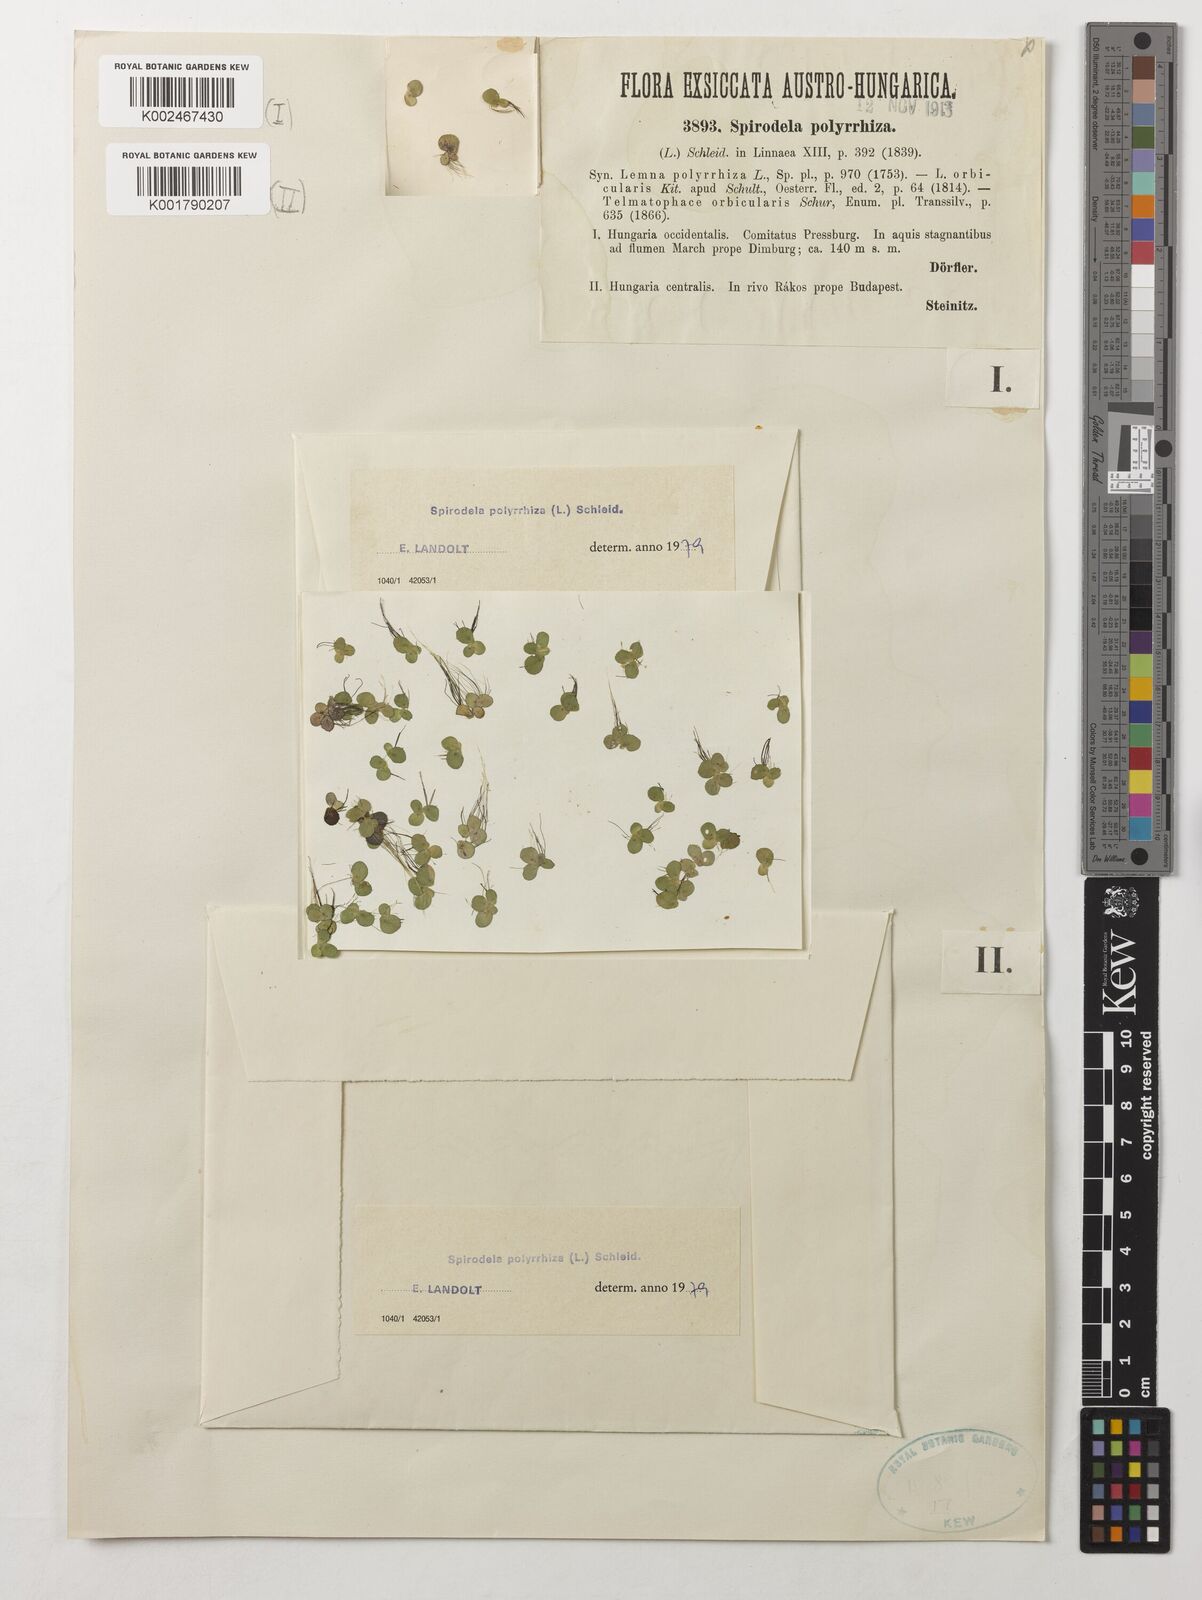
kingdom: Plantae
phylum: Tracheophyta
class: Liliopsida
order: Alismatales
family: Araceae
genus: Spirodela
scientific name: Spirodela polyrhiza
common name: Great duckweed
